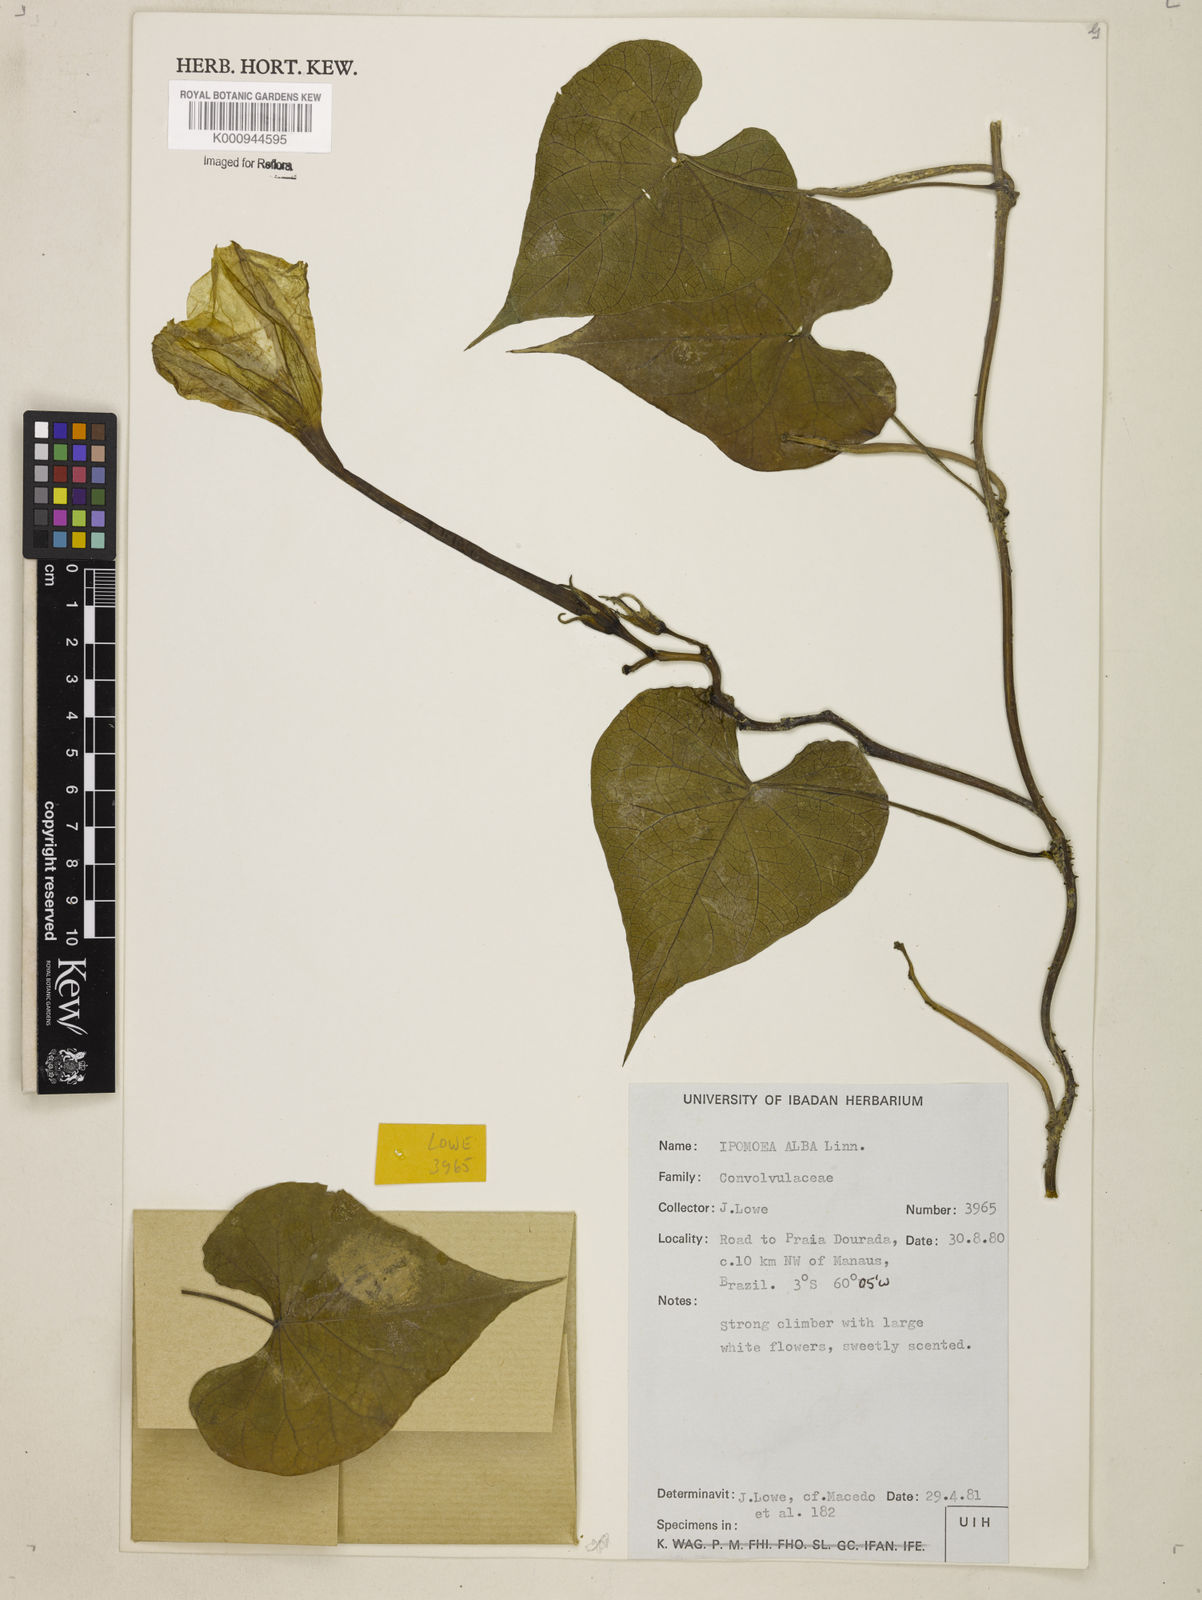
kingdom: Plantae
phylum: Tracheophyta
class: Magnoliopsida
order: Solanales
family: Convolvulaceae
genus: Ipomoea
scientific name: Ipomoea alba
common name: Moonflower
